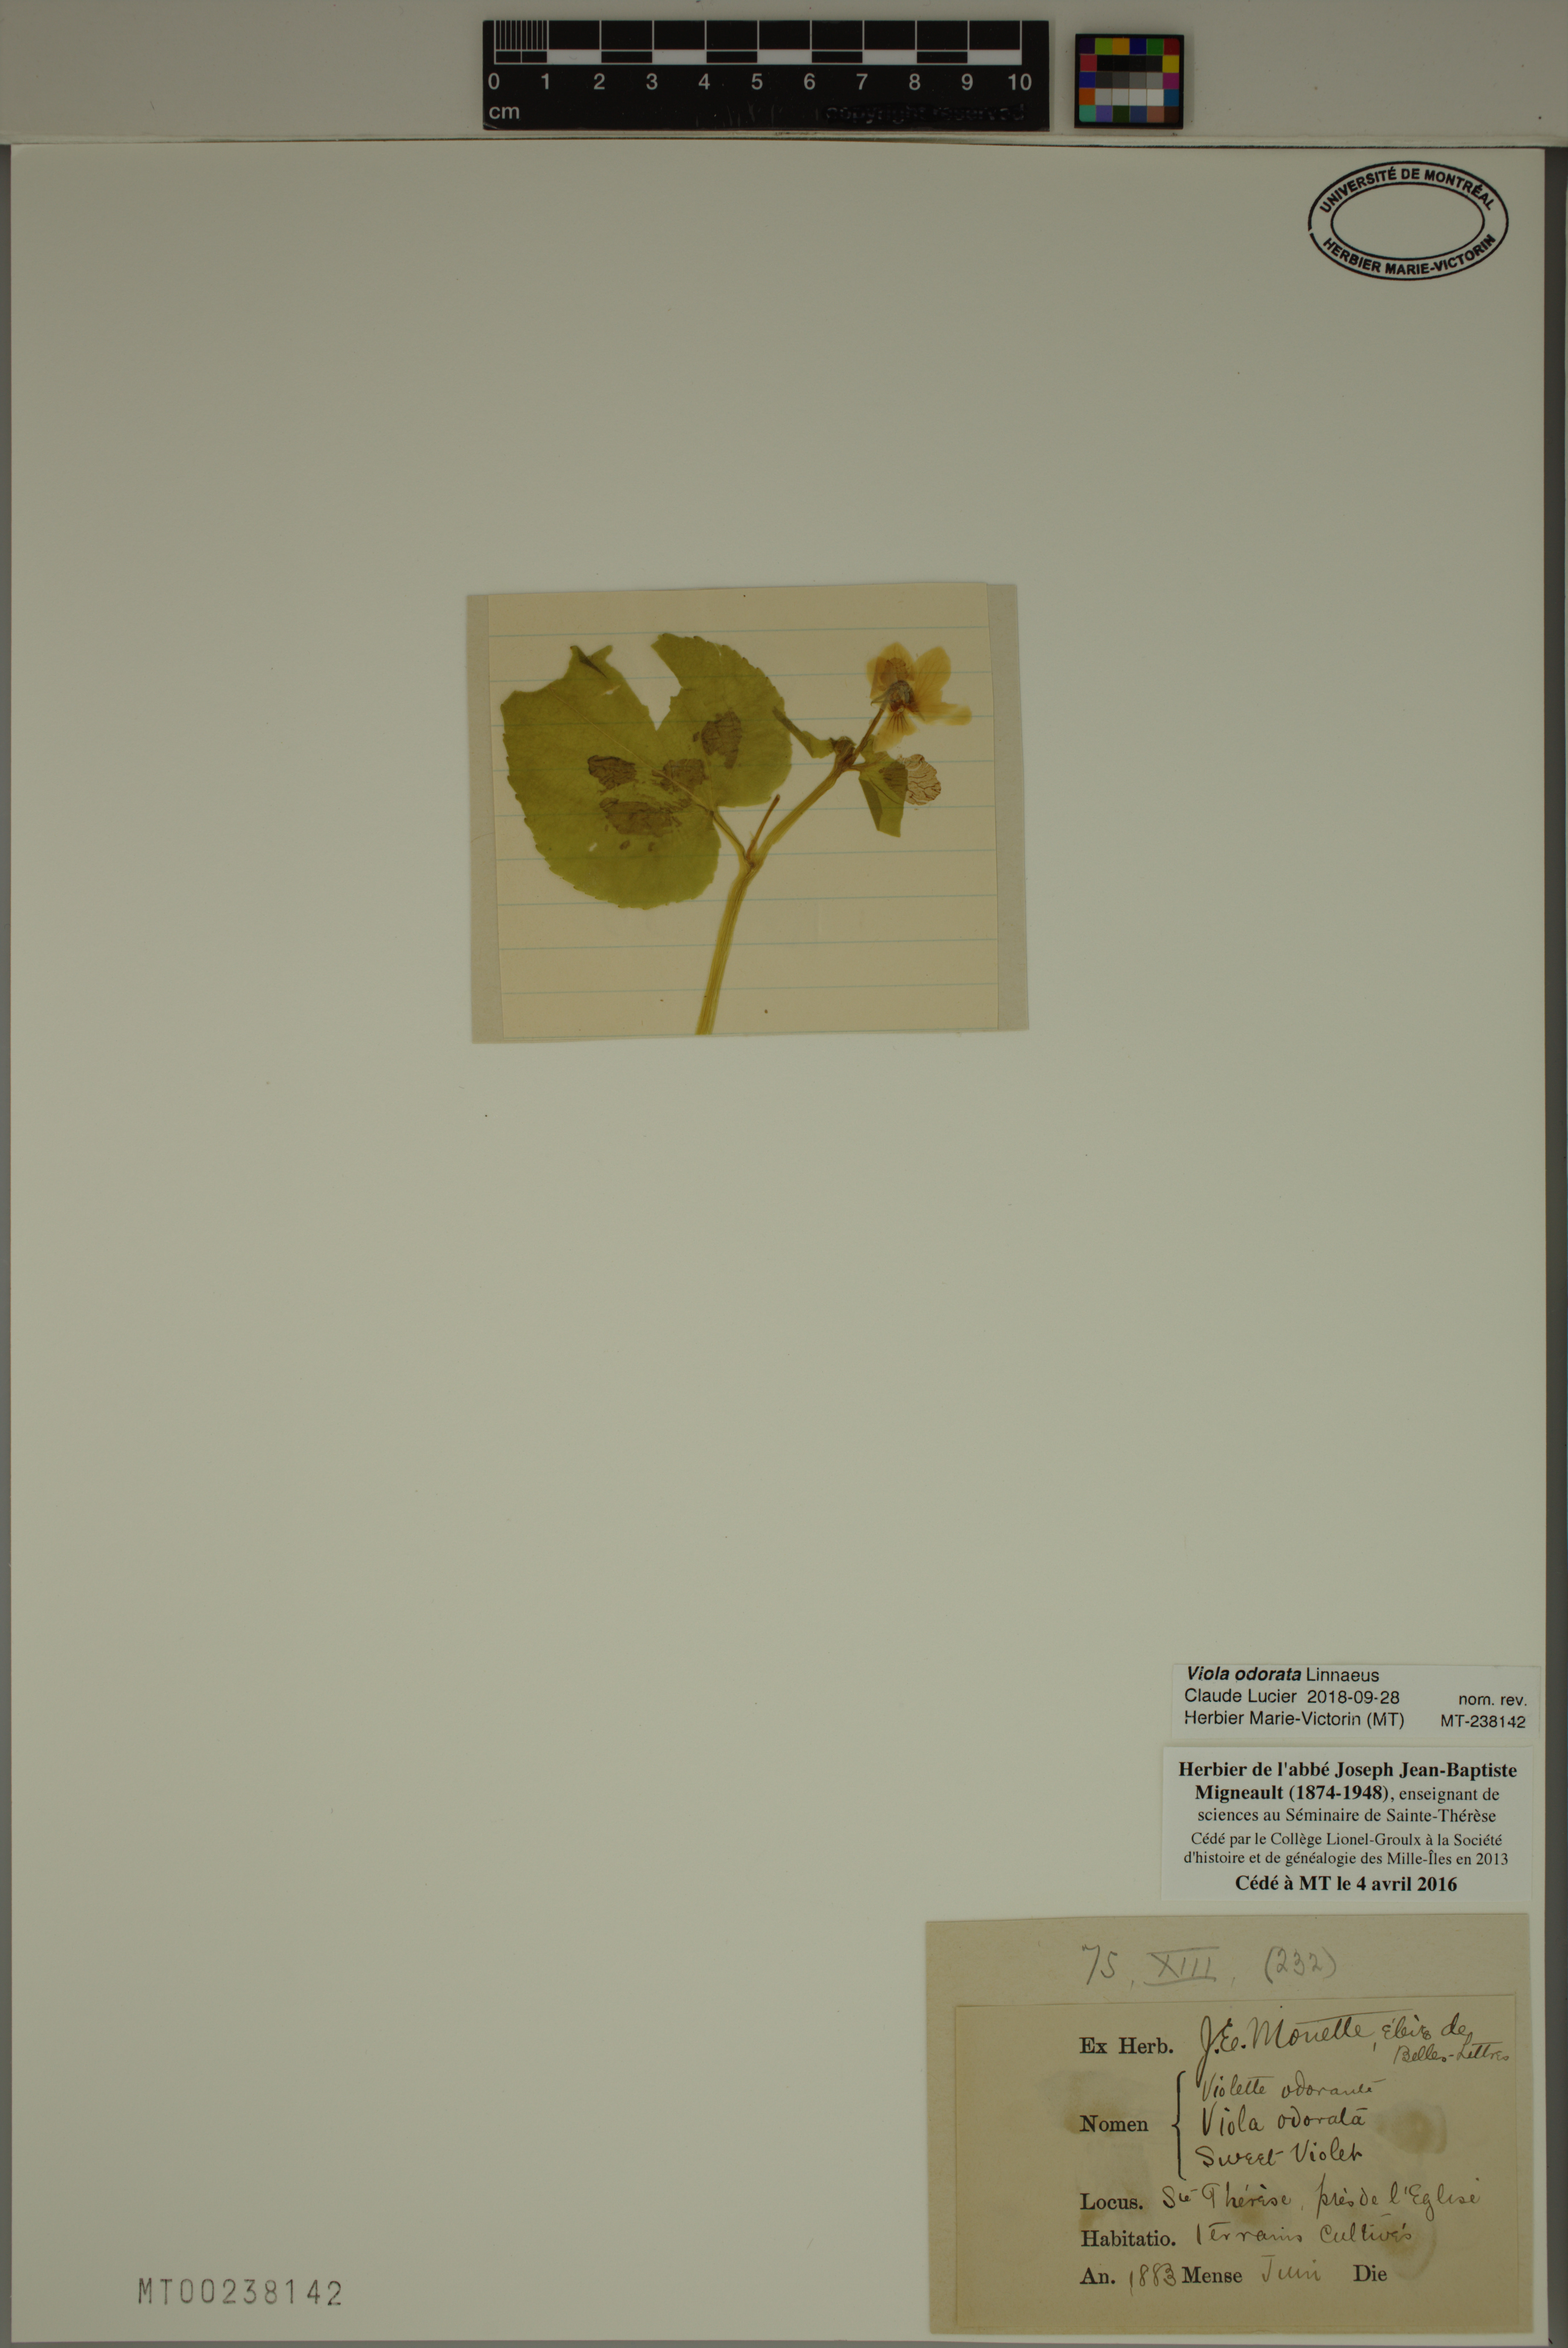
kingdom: Plantae
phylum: Tracheophyta
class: Magnoliopsida
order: Malpighiales
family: Violaceae
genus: Viola
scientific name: Viola odorata
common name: Sweet violet
